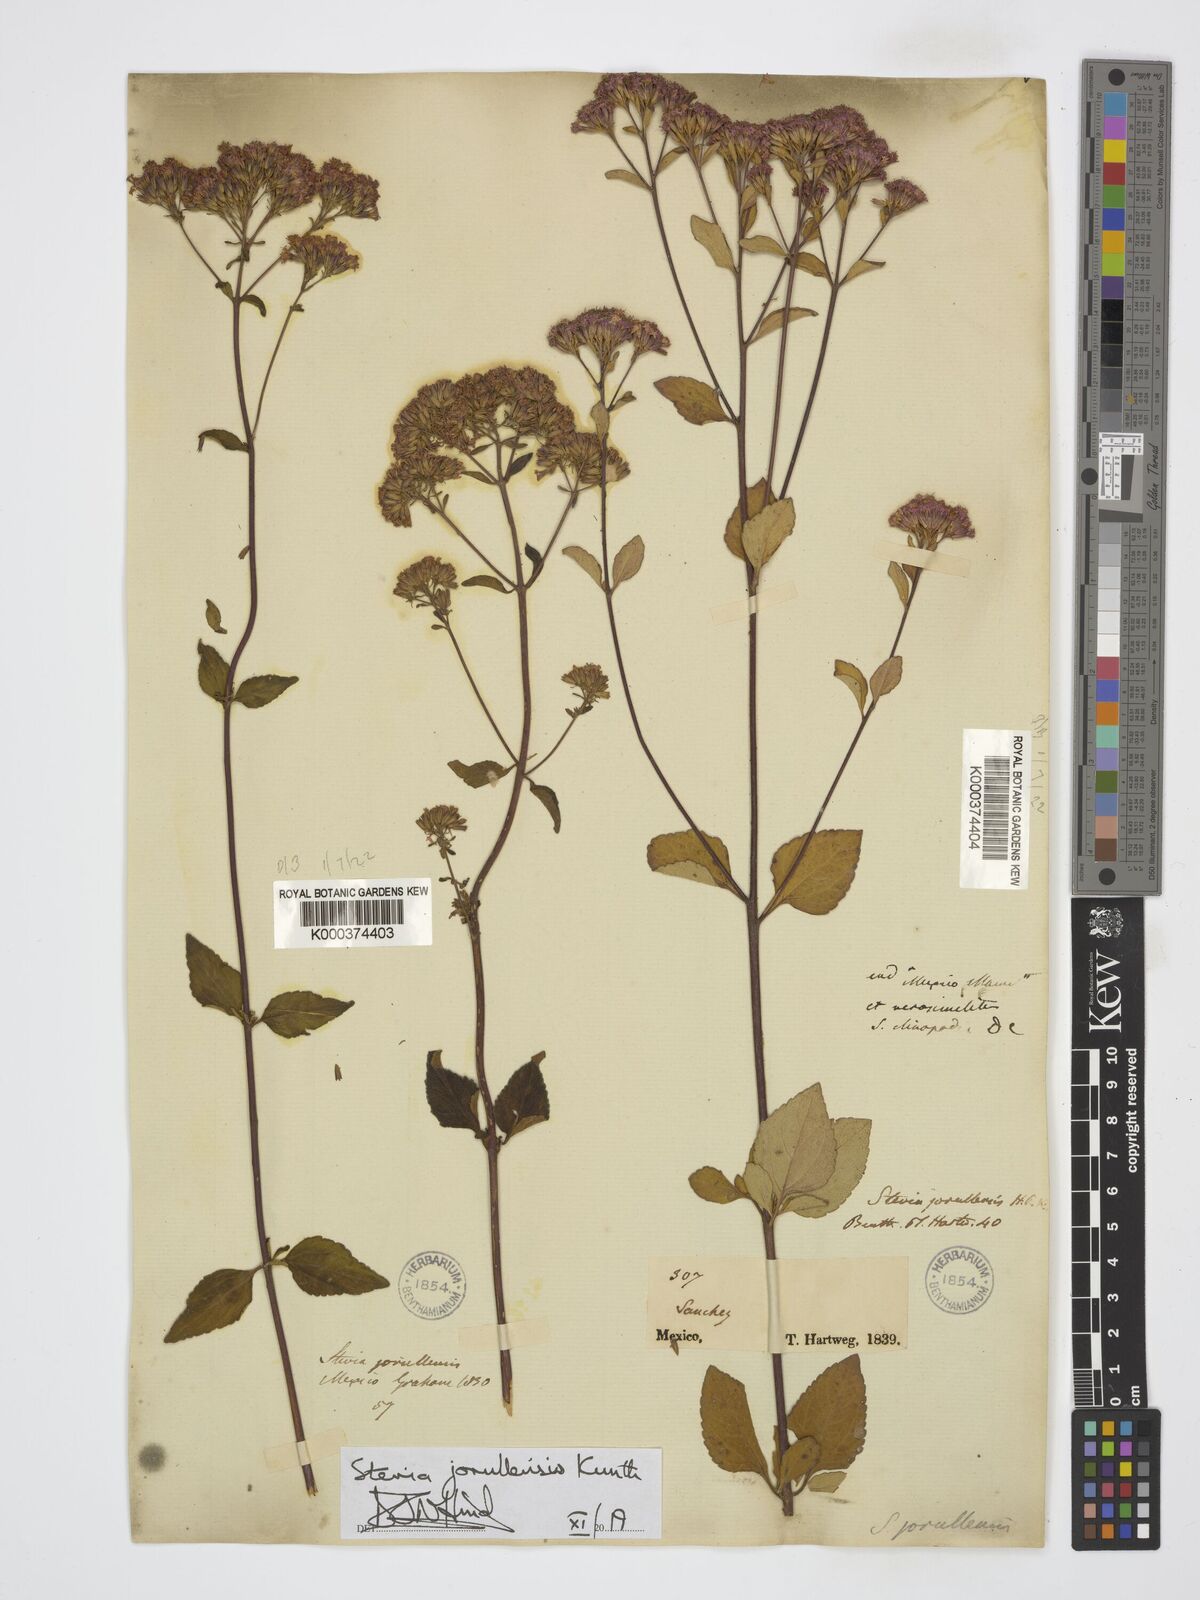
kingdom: Plantae
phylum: Tracheophyta
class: Magnoliopsida
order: Asterales
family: Asteraceae
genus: Stevia
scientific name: Stevia jorullensis
